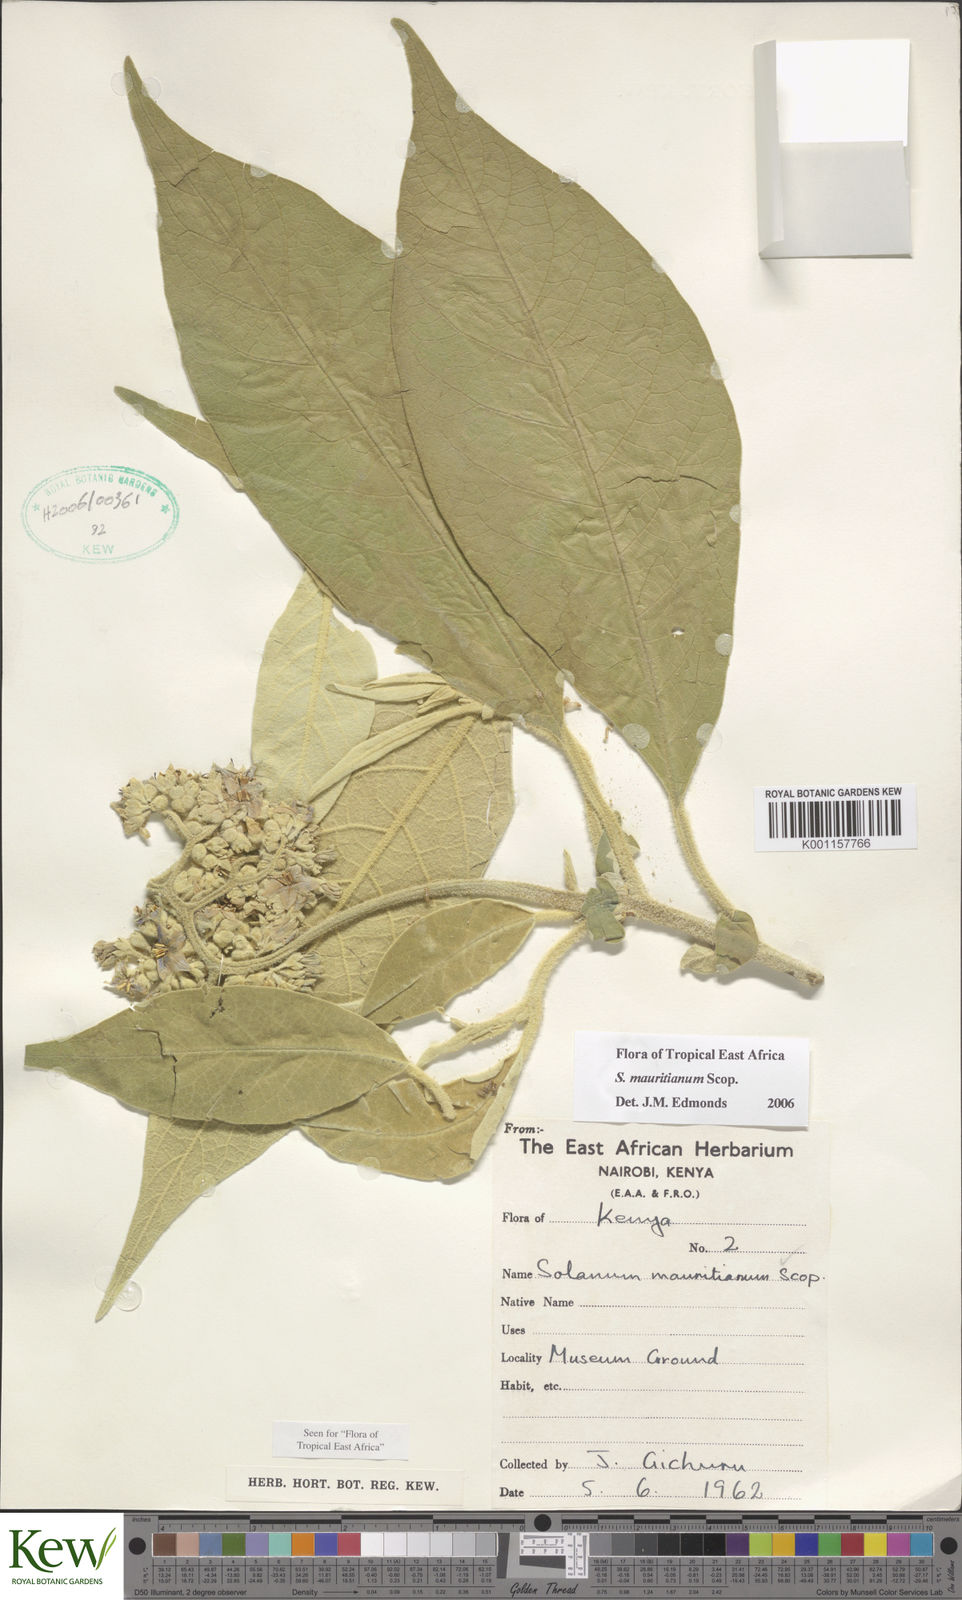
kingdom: Plantae
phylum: Tracheophyta
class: Magnoliopsida
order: Solanales
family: Solanaceae
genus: Solanum
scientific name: Solanum mauritianum
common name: Earleaf nightshade
